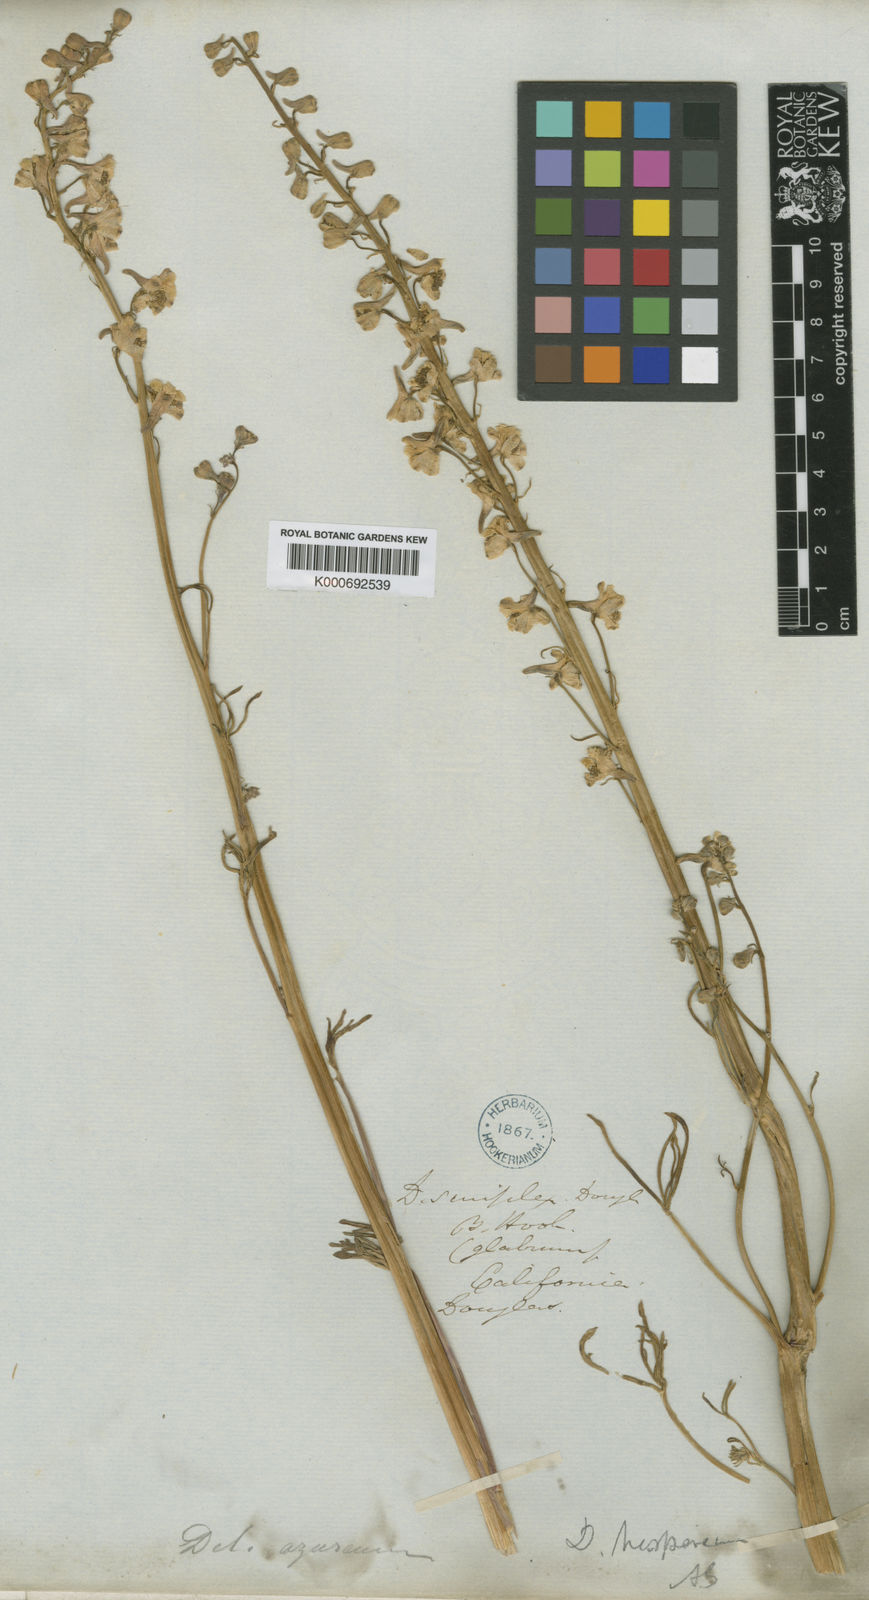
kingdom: Plantae
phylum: Tracheophyta
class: Magnoliopsida
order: Ranunculales
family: Ranunculaceae
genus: Delphinium
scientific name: Delphinium hesperium
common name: Western larkspur
